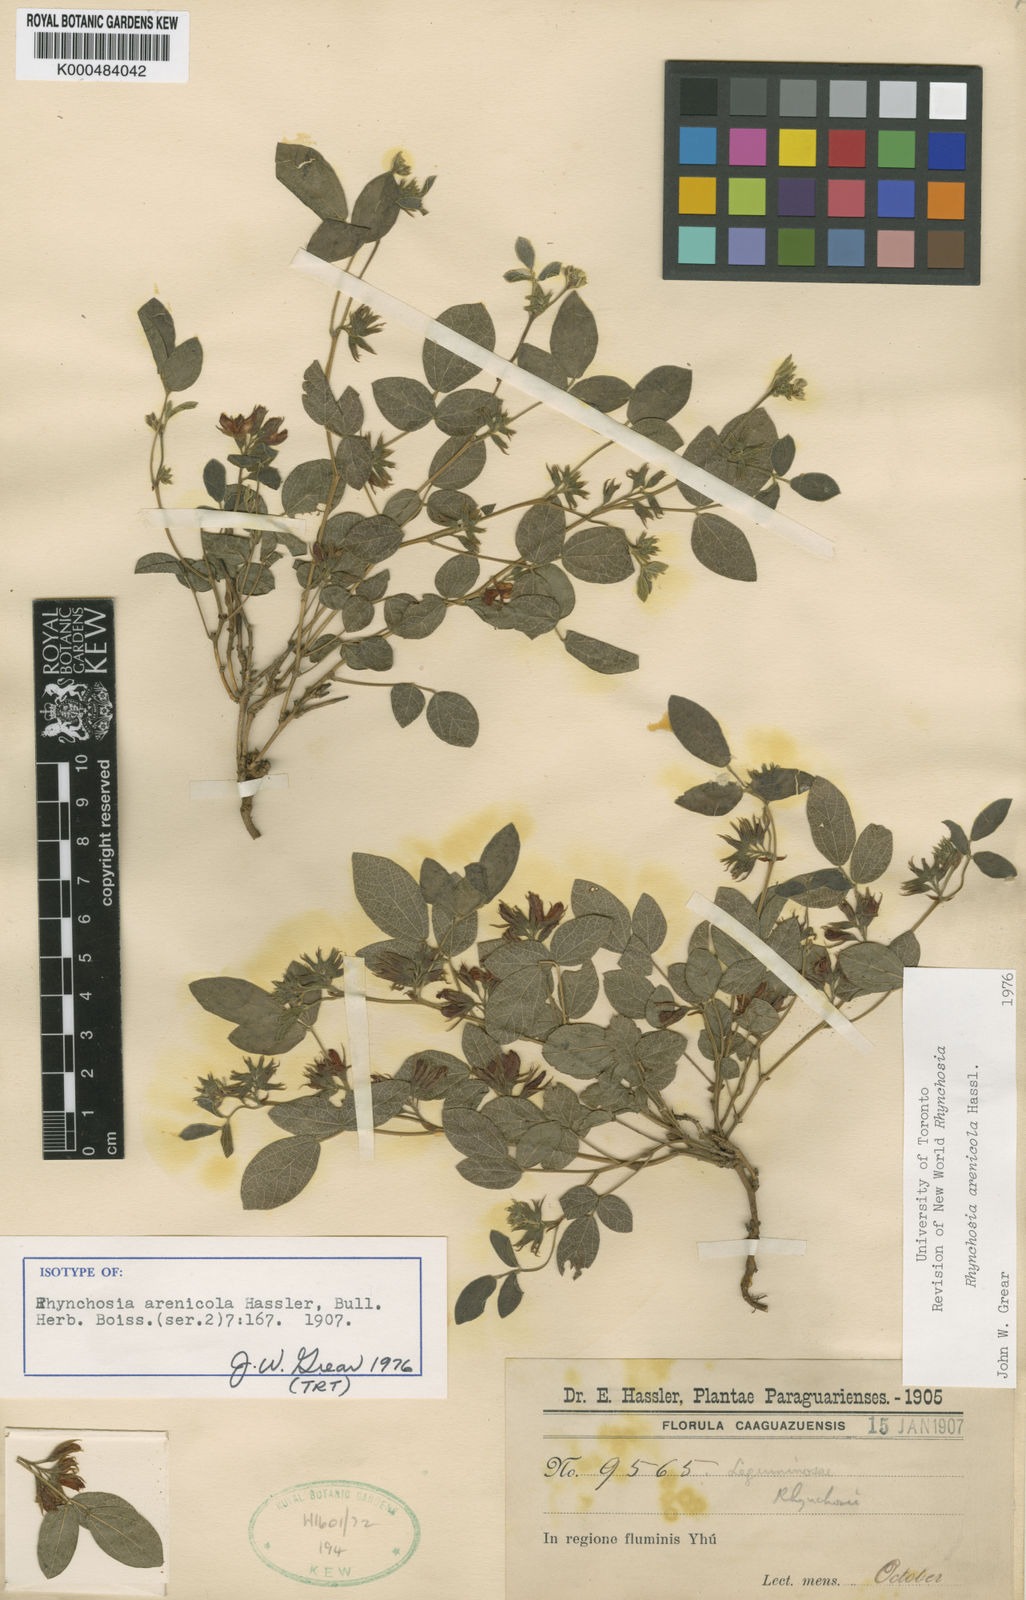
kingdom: Plantae
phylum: Tracheophyta
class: Magnoliopsida
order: Fabales
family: Fabaceae
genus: Rhynchosia
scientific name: Rhynchosia arenicola
